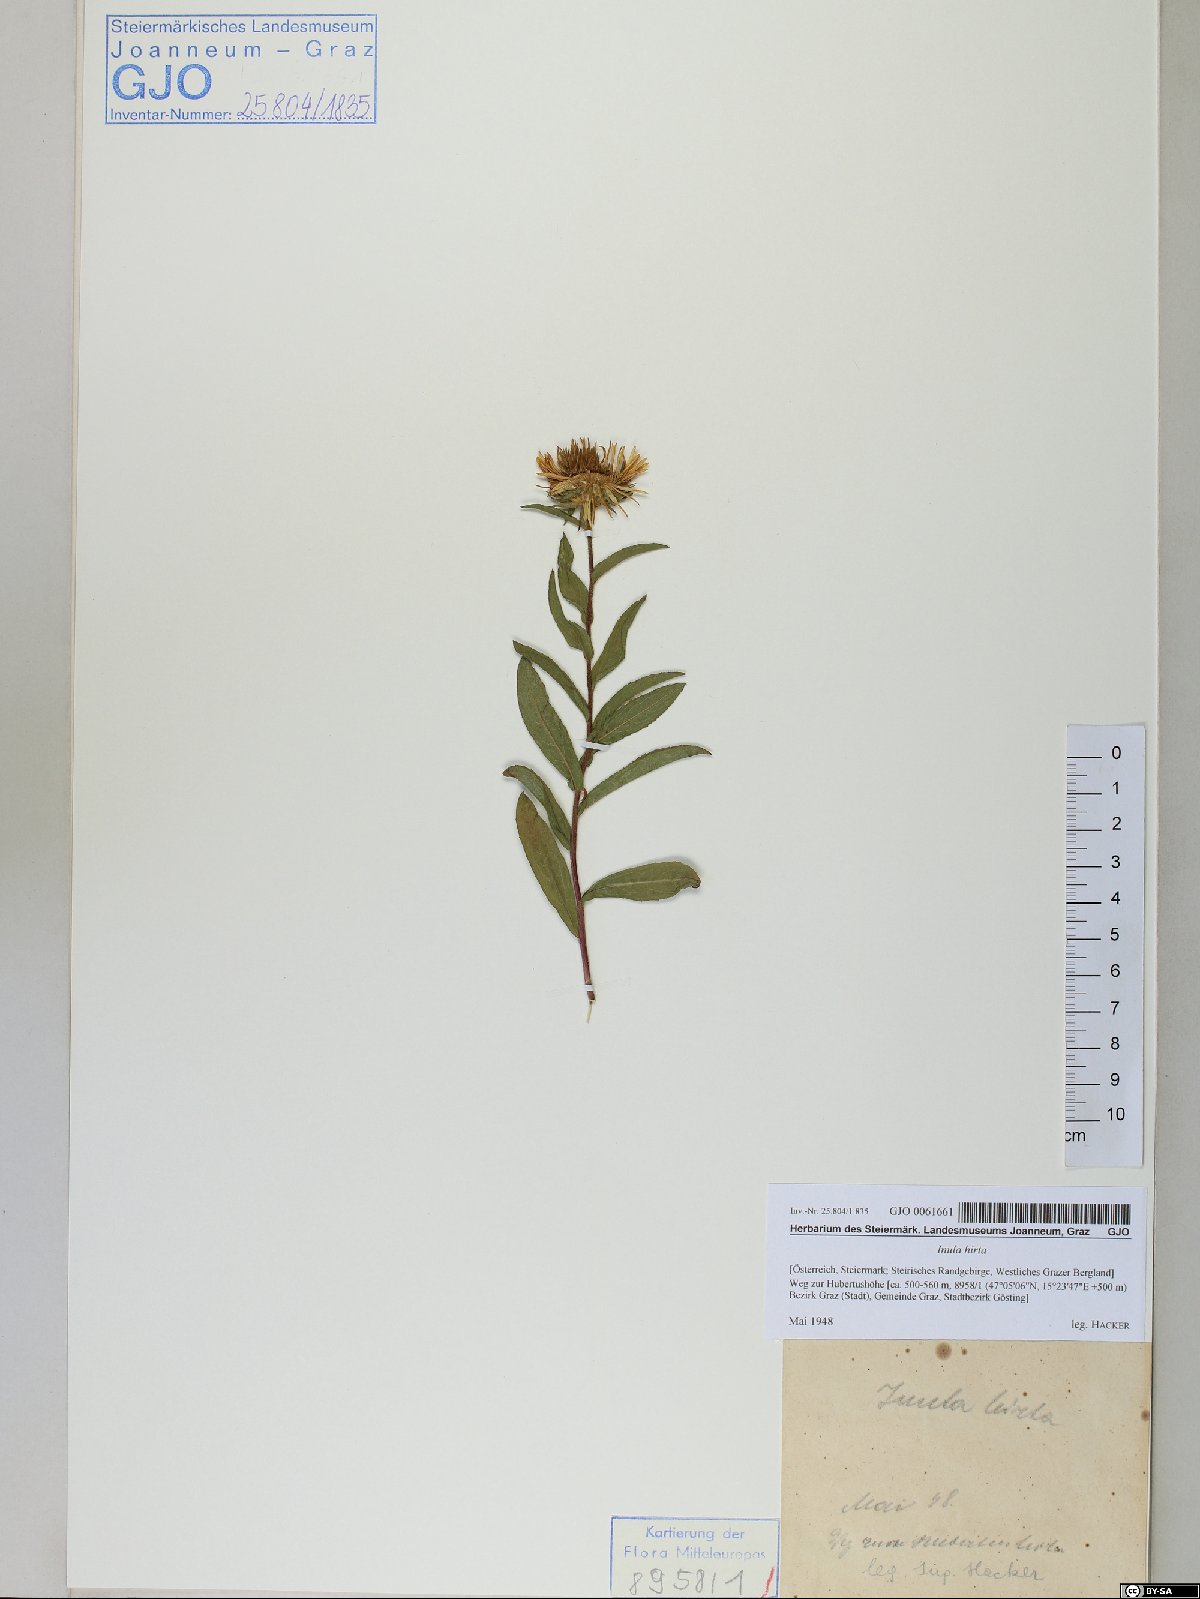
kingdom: Plantae
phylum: Tracheophyta
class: Magnoliopsida
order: Asterales
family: Asteraceae
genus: Pentanema
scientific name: Pentanema hirtum
